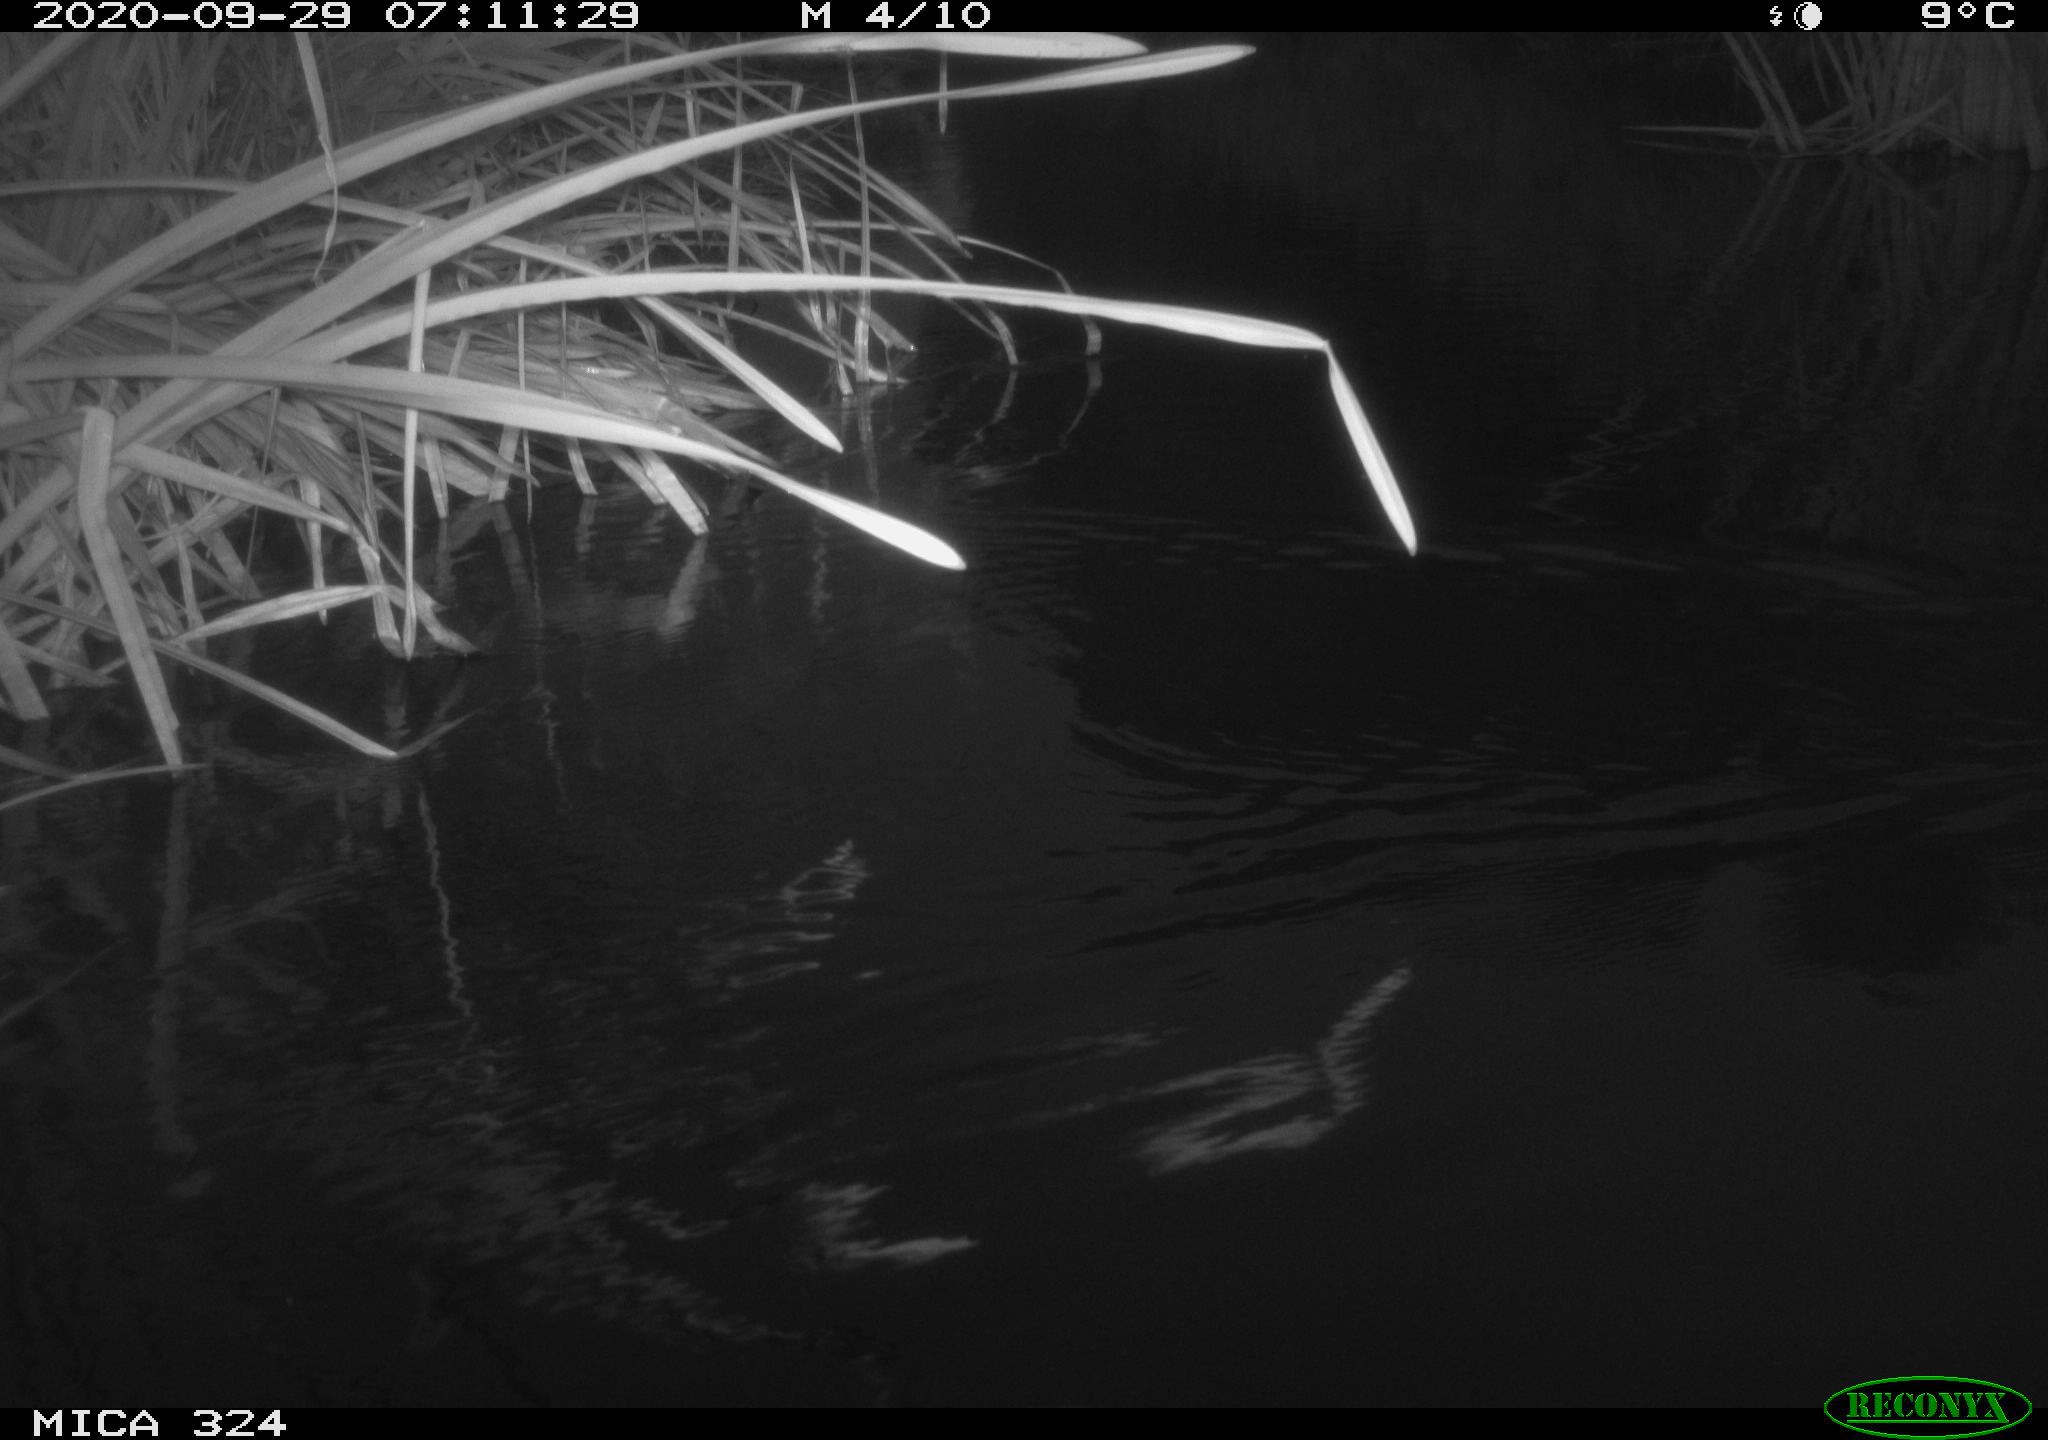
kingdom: Animalia
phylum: Chordata
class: Aves
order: Gruiformes
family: Rallidae
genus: Gallinula
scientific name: Gallinula chloropus
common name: Common moorhen
